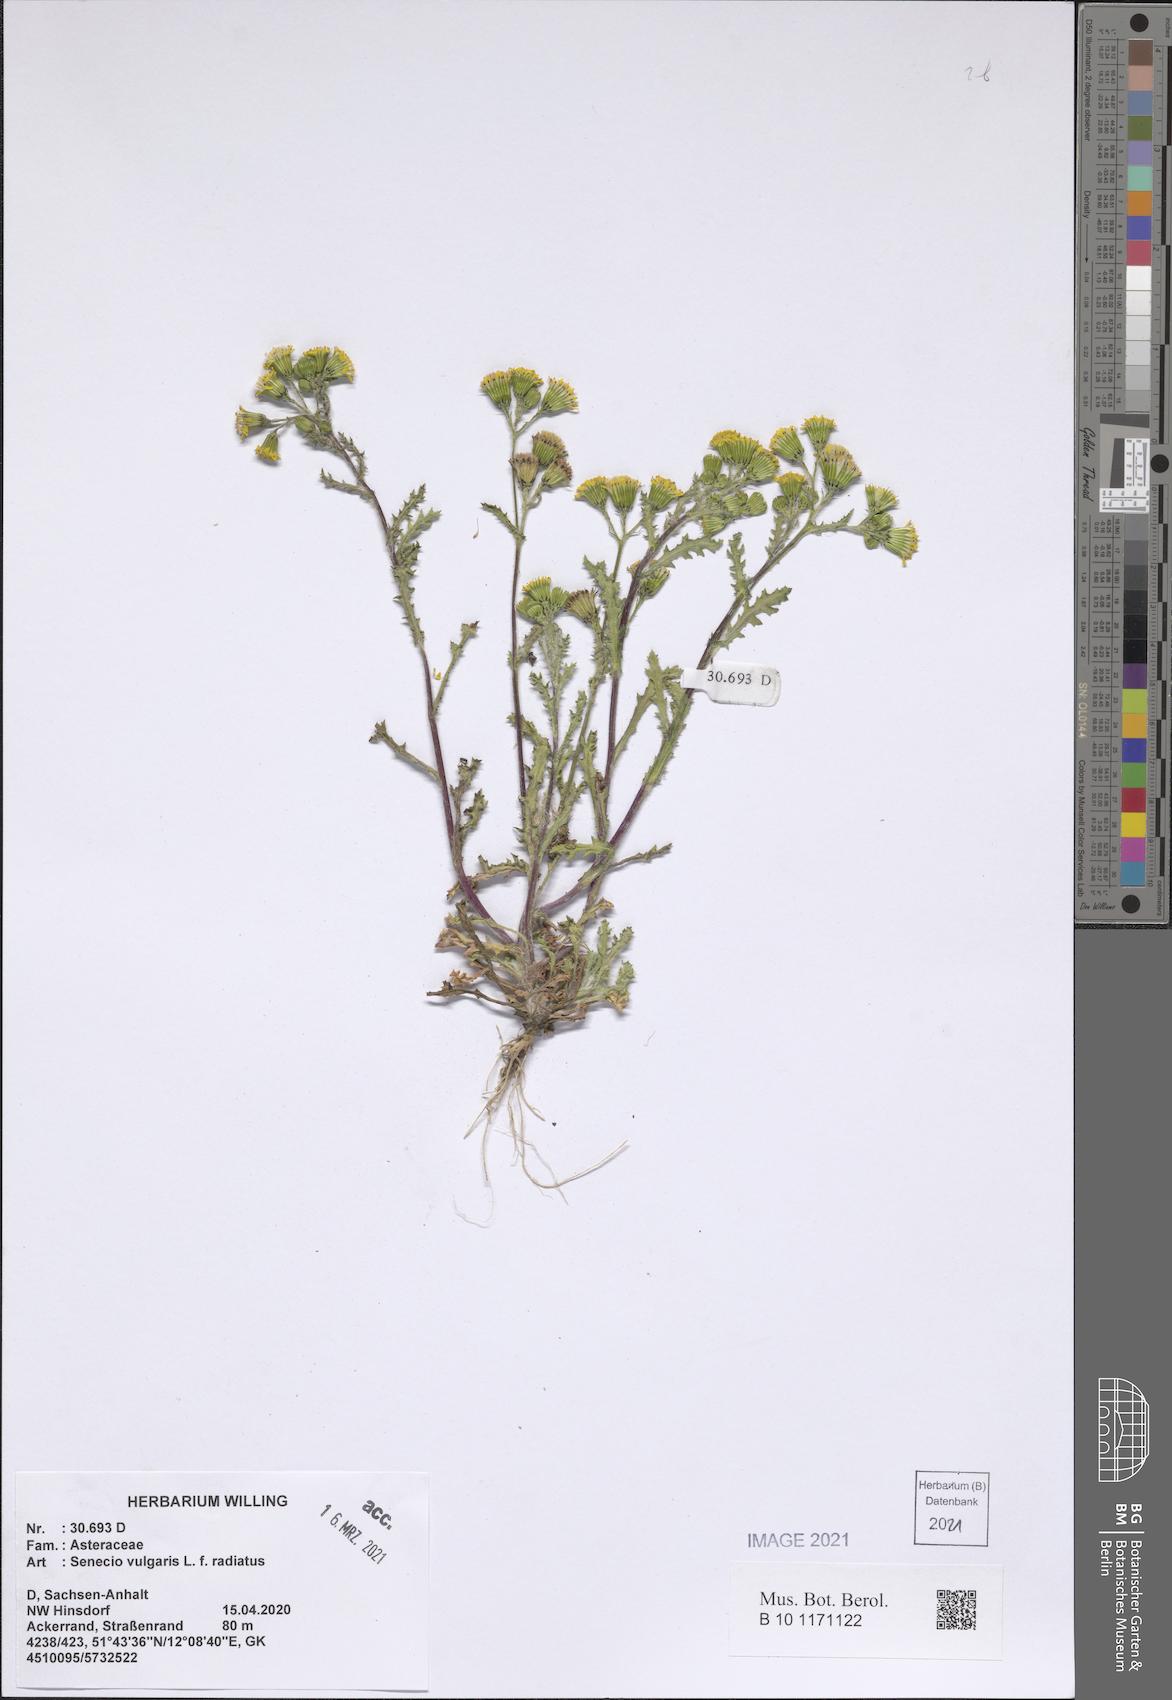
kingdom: Plantae
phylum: Tracheophyta
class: Magnoliopsida
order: Asterales
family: Asteraceae
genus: Senecio
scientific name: Senecio vulgaris
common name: Old-man-in-the-spring
